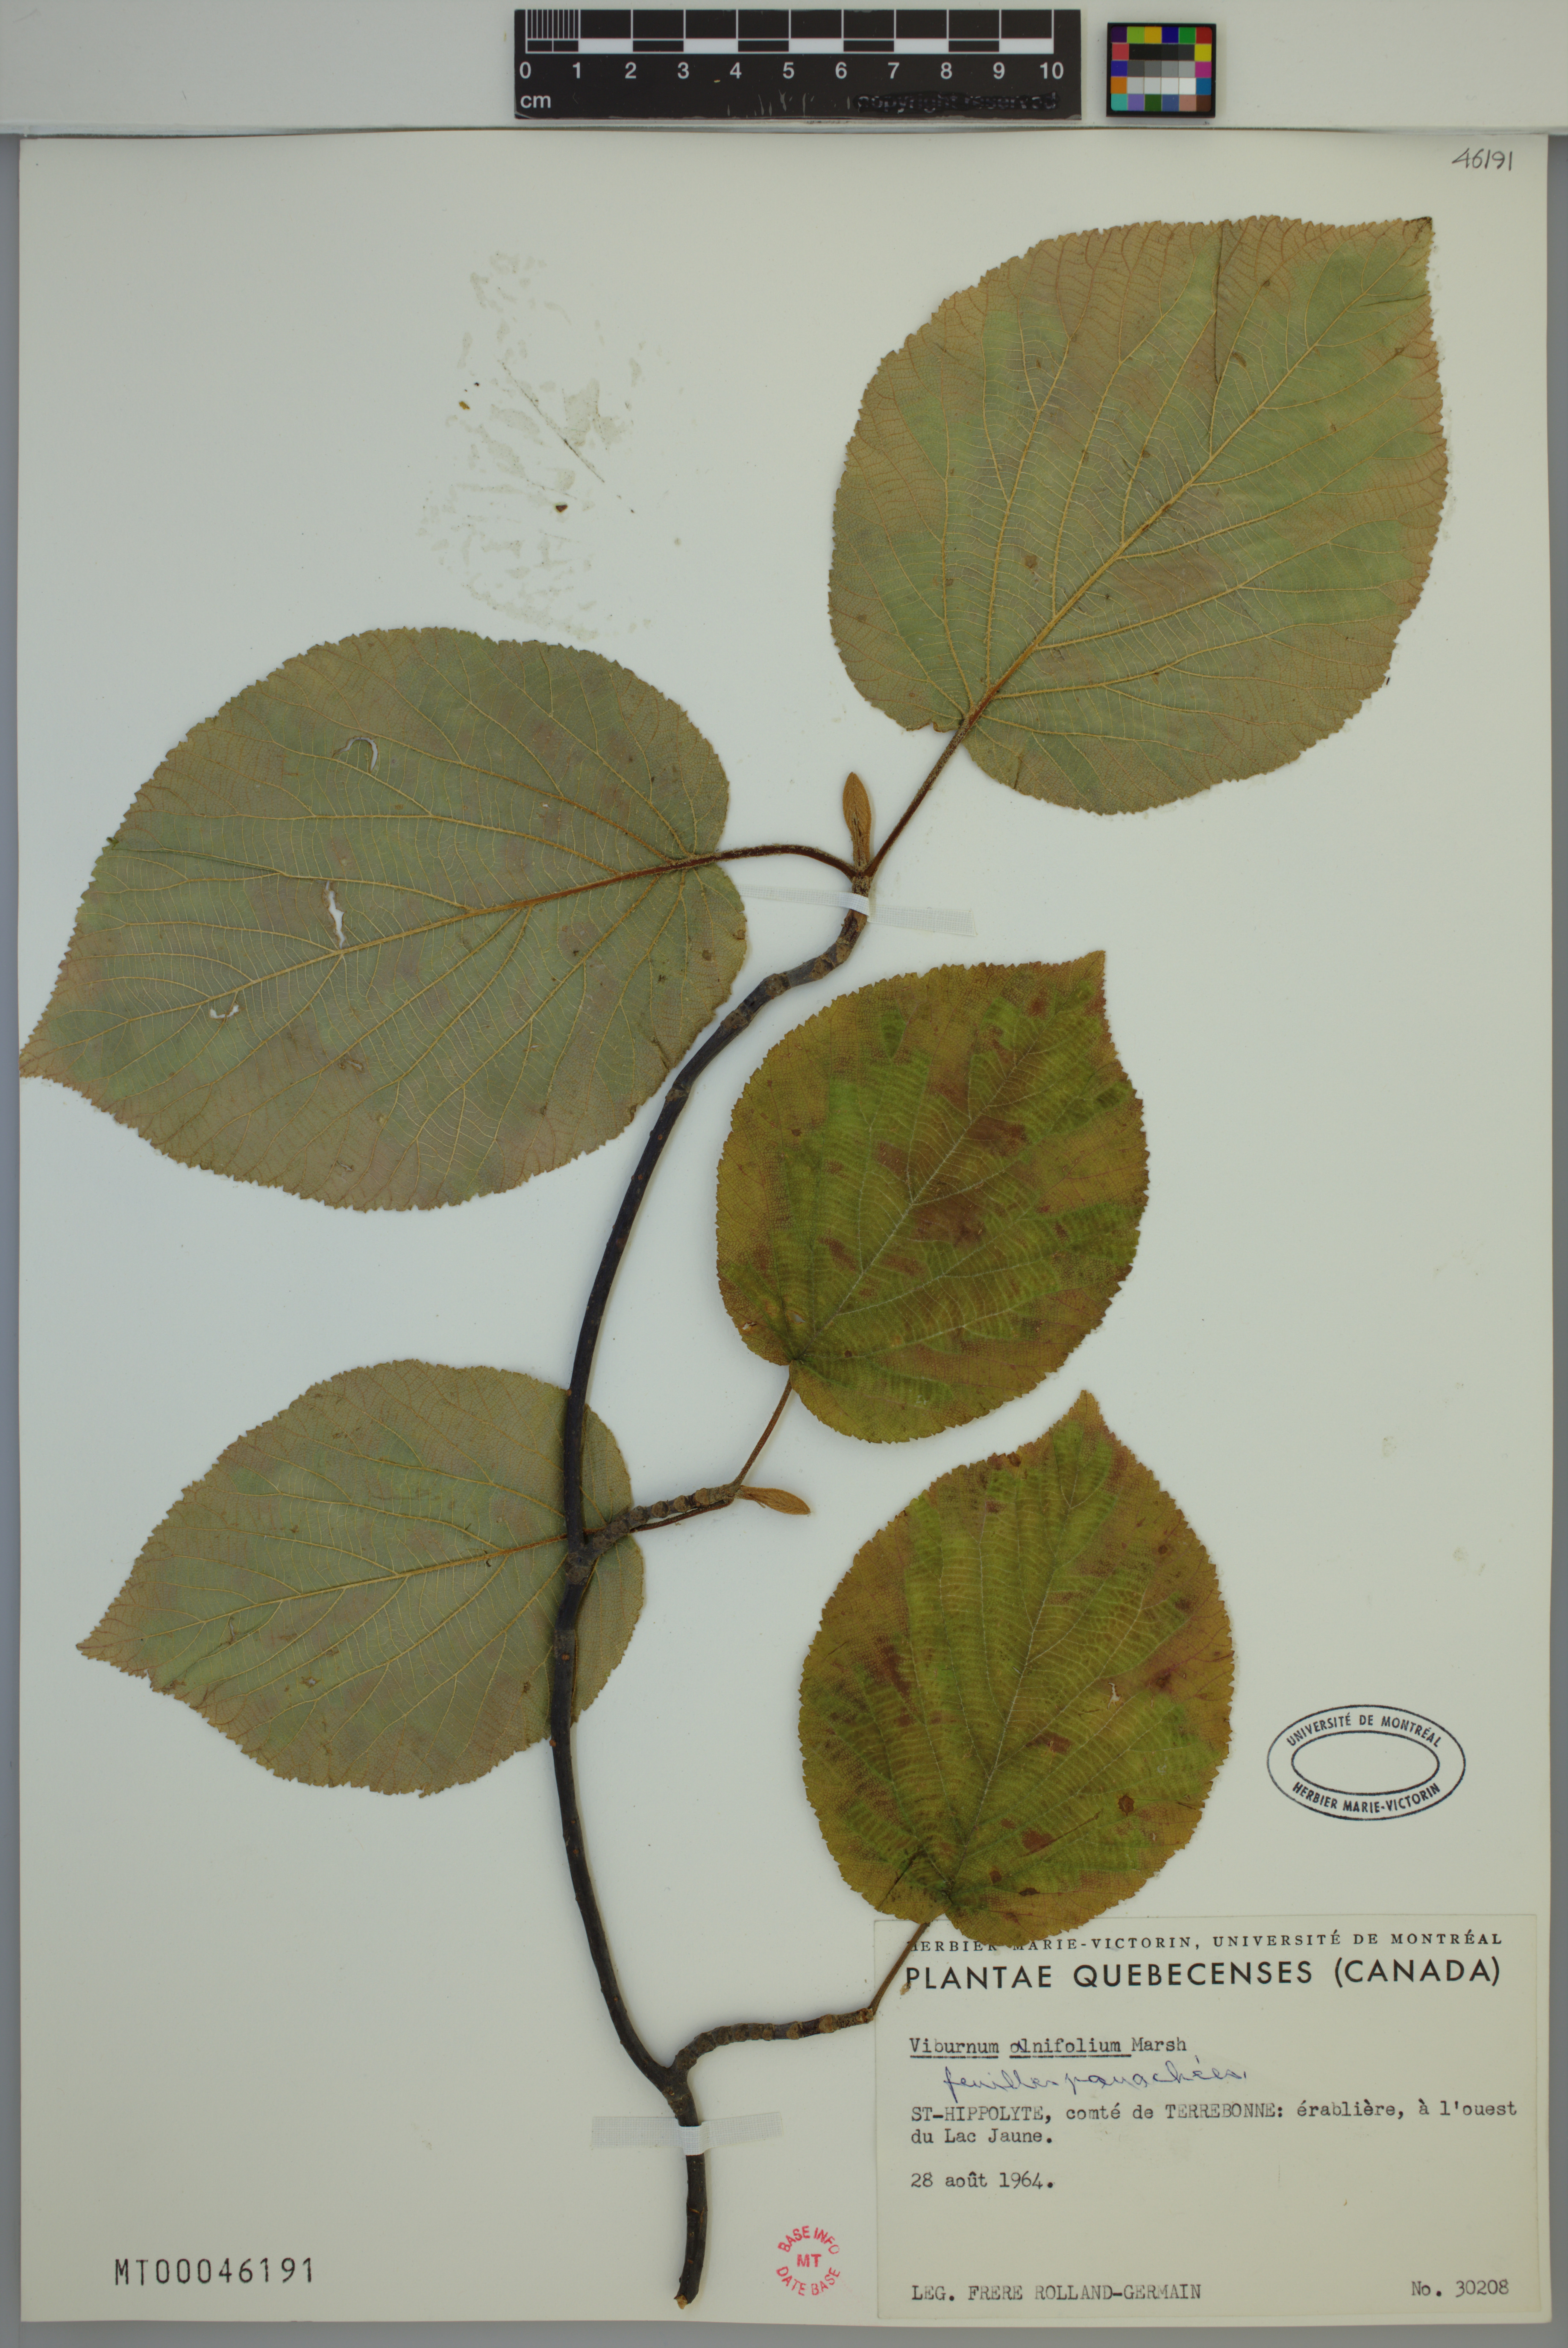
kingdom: Plantae
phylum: Tracheophyta
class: Magnoliopsida
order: Dipsacales
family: Viburnaceae
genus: Viburnum
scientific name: Viburnum lantanoides
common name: Hobblebush
